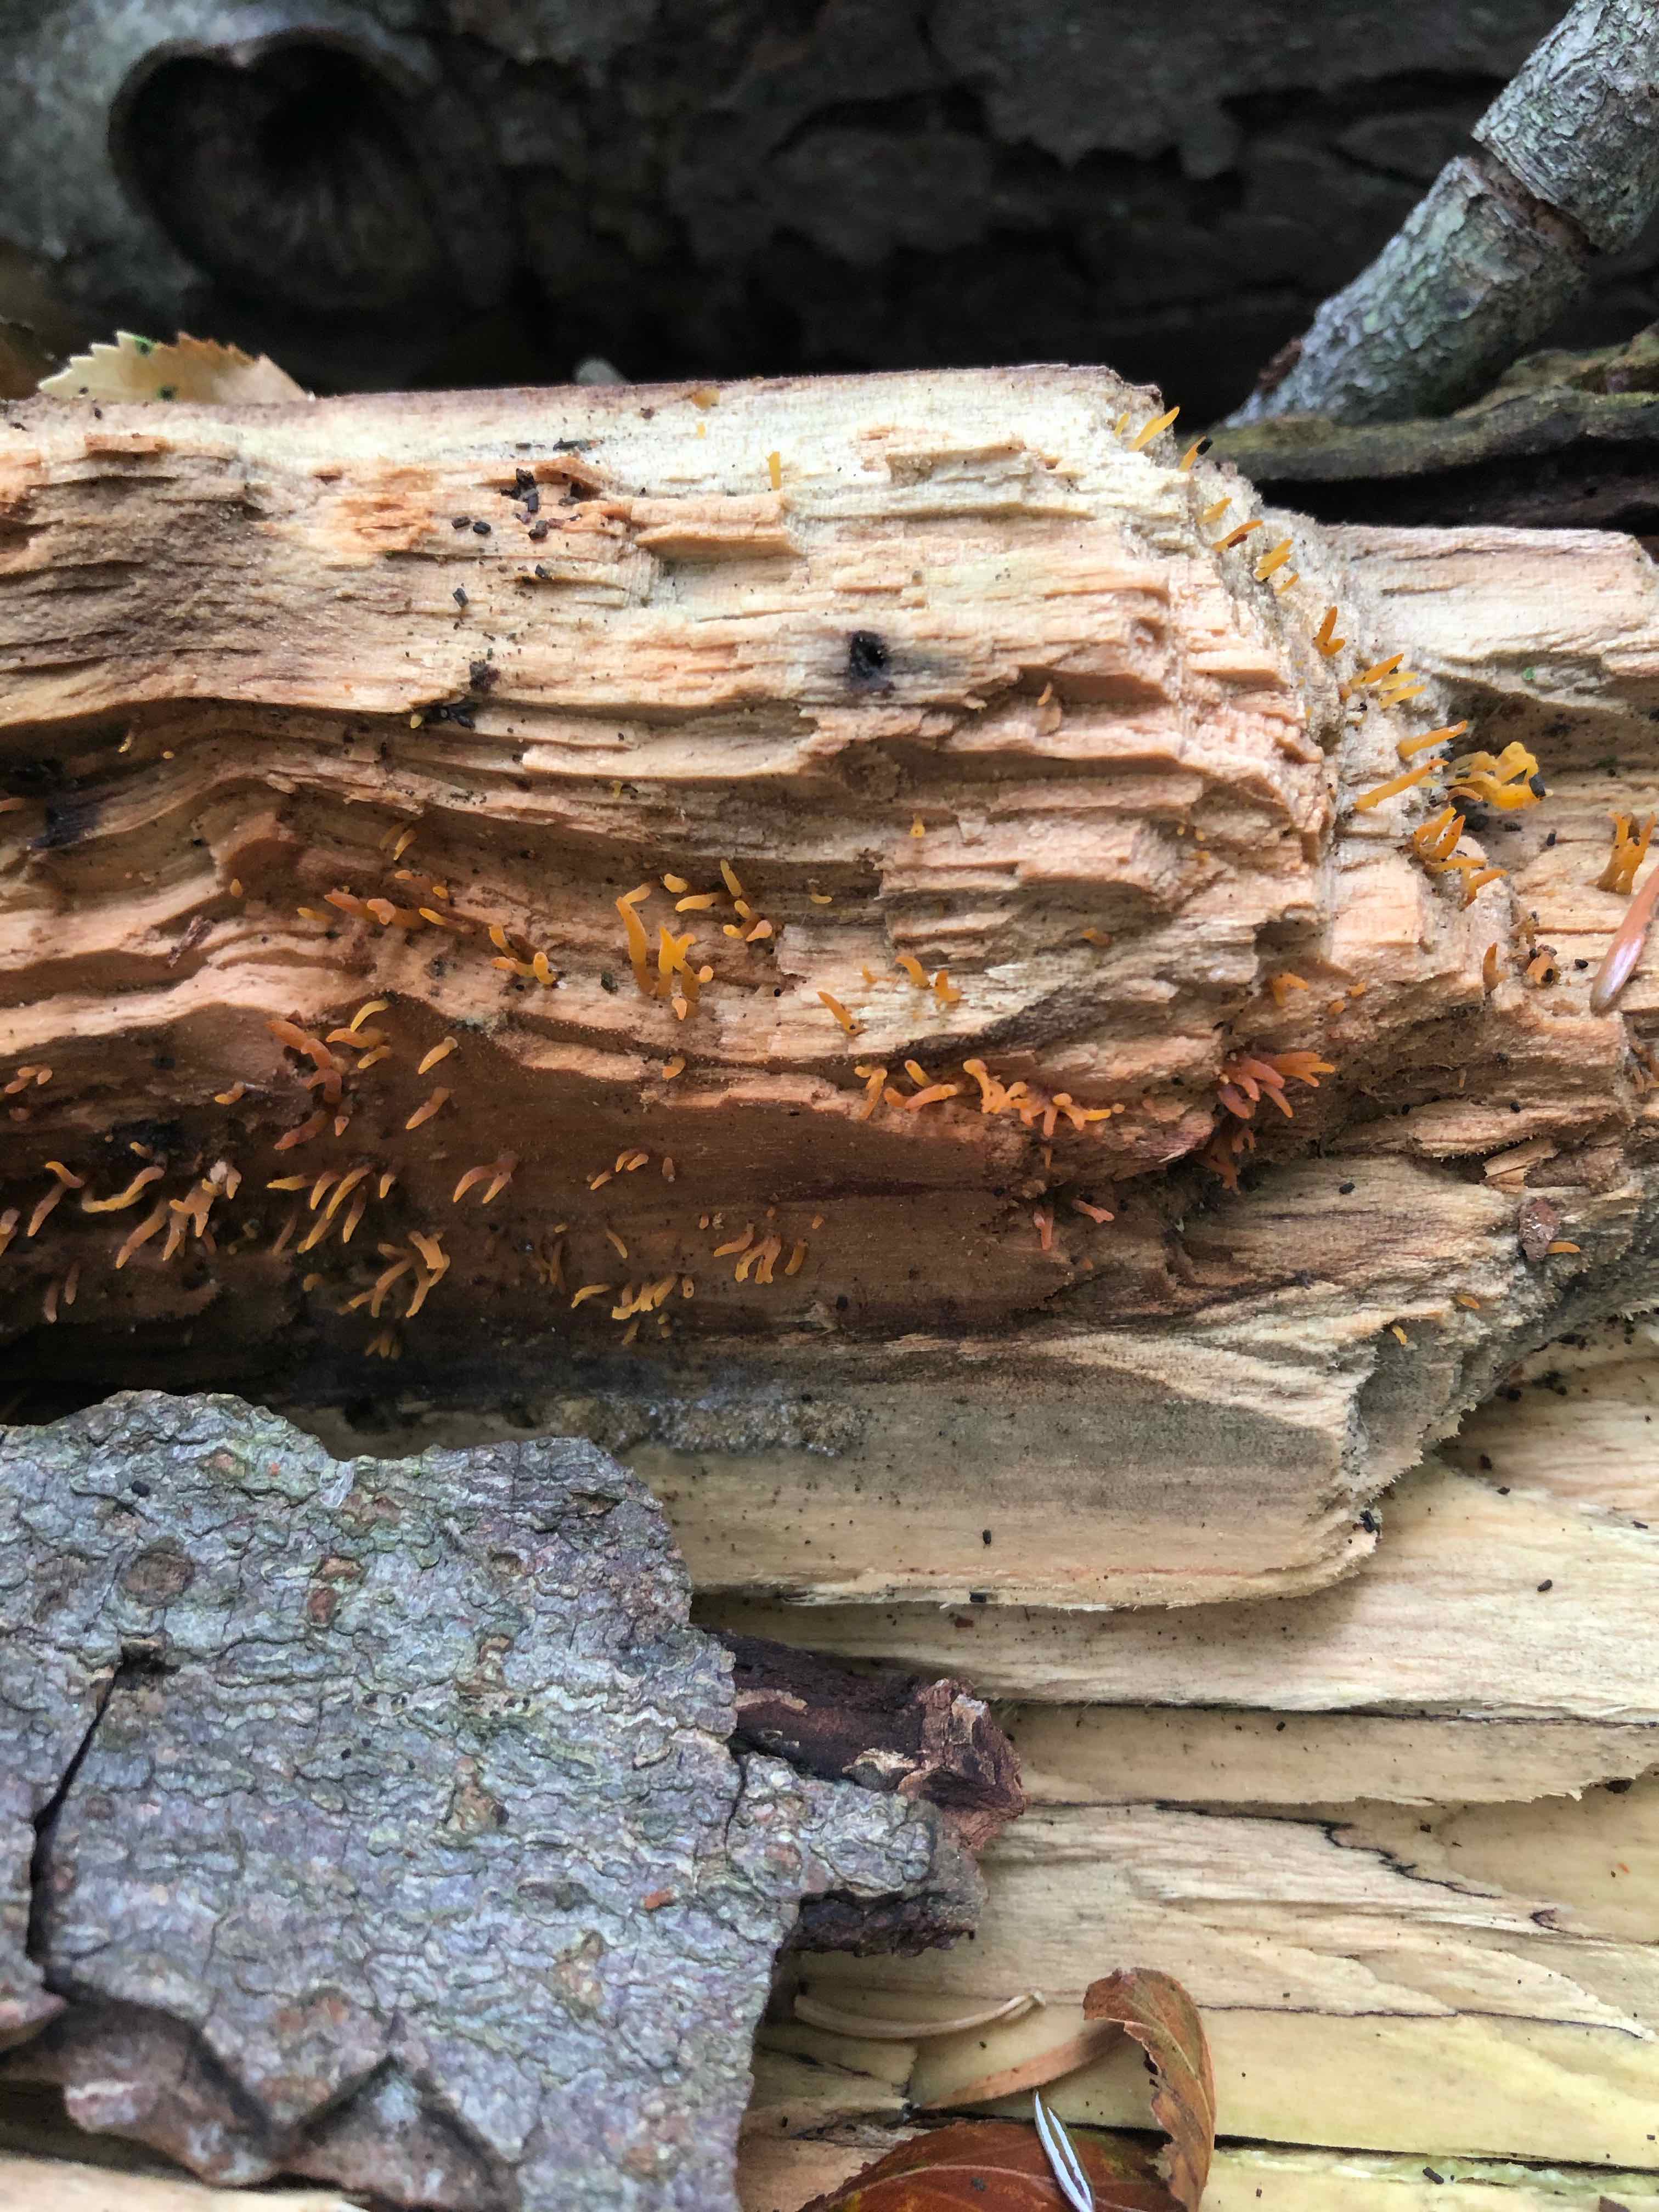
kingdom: Fungi
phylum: Basidiomycota
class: Dacrymycetes
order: Dacrymycetales
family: Dacrymycetaceae
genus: Calocera
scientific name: Calocera cornea
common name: liden guldgaffel
